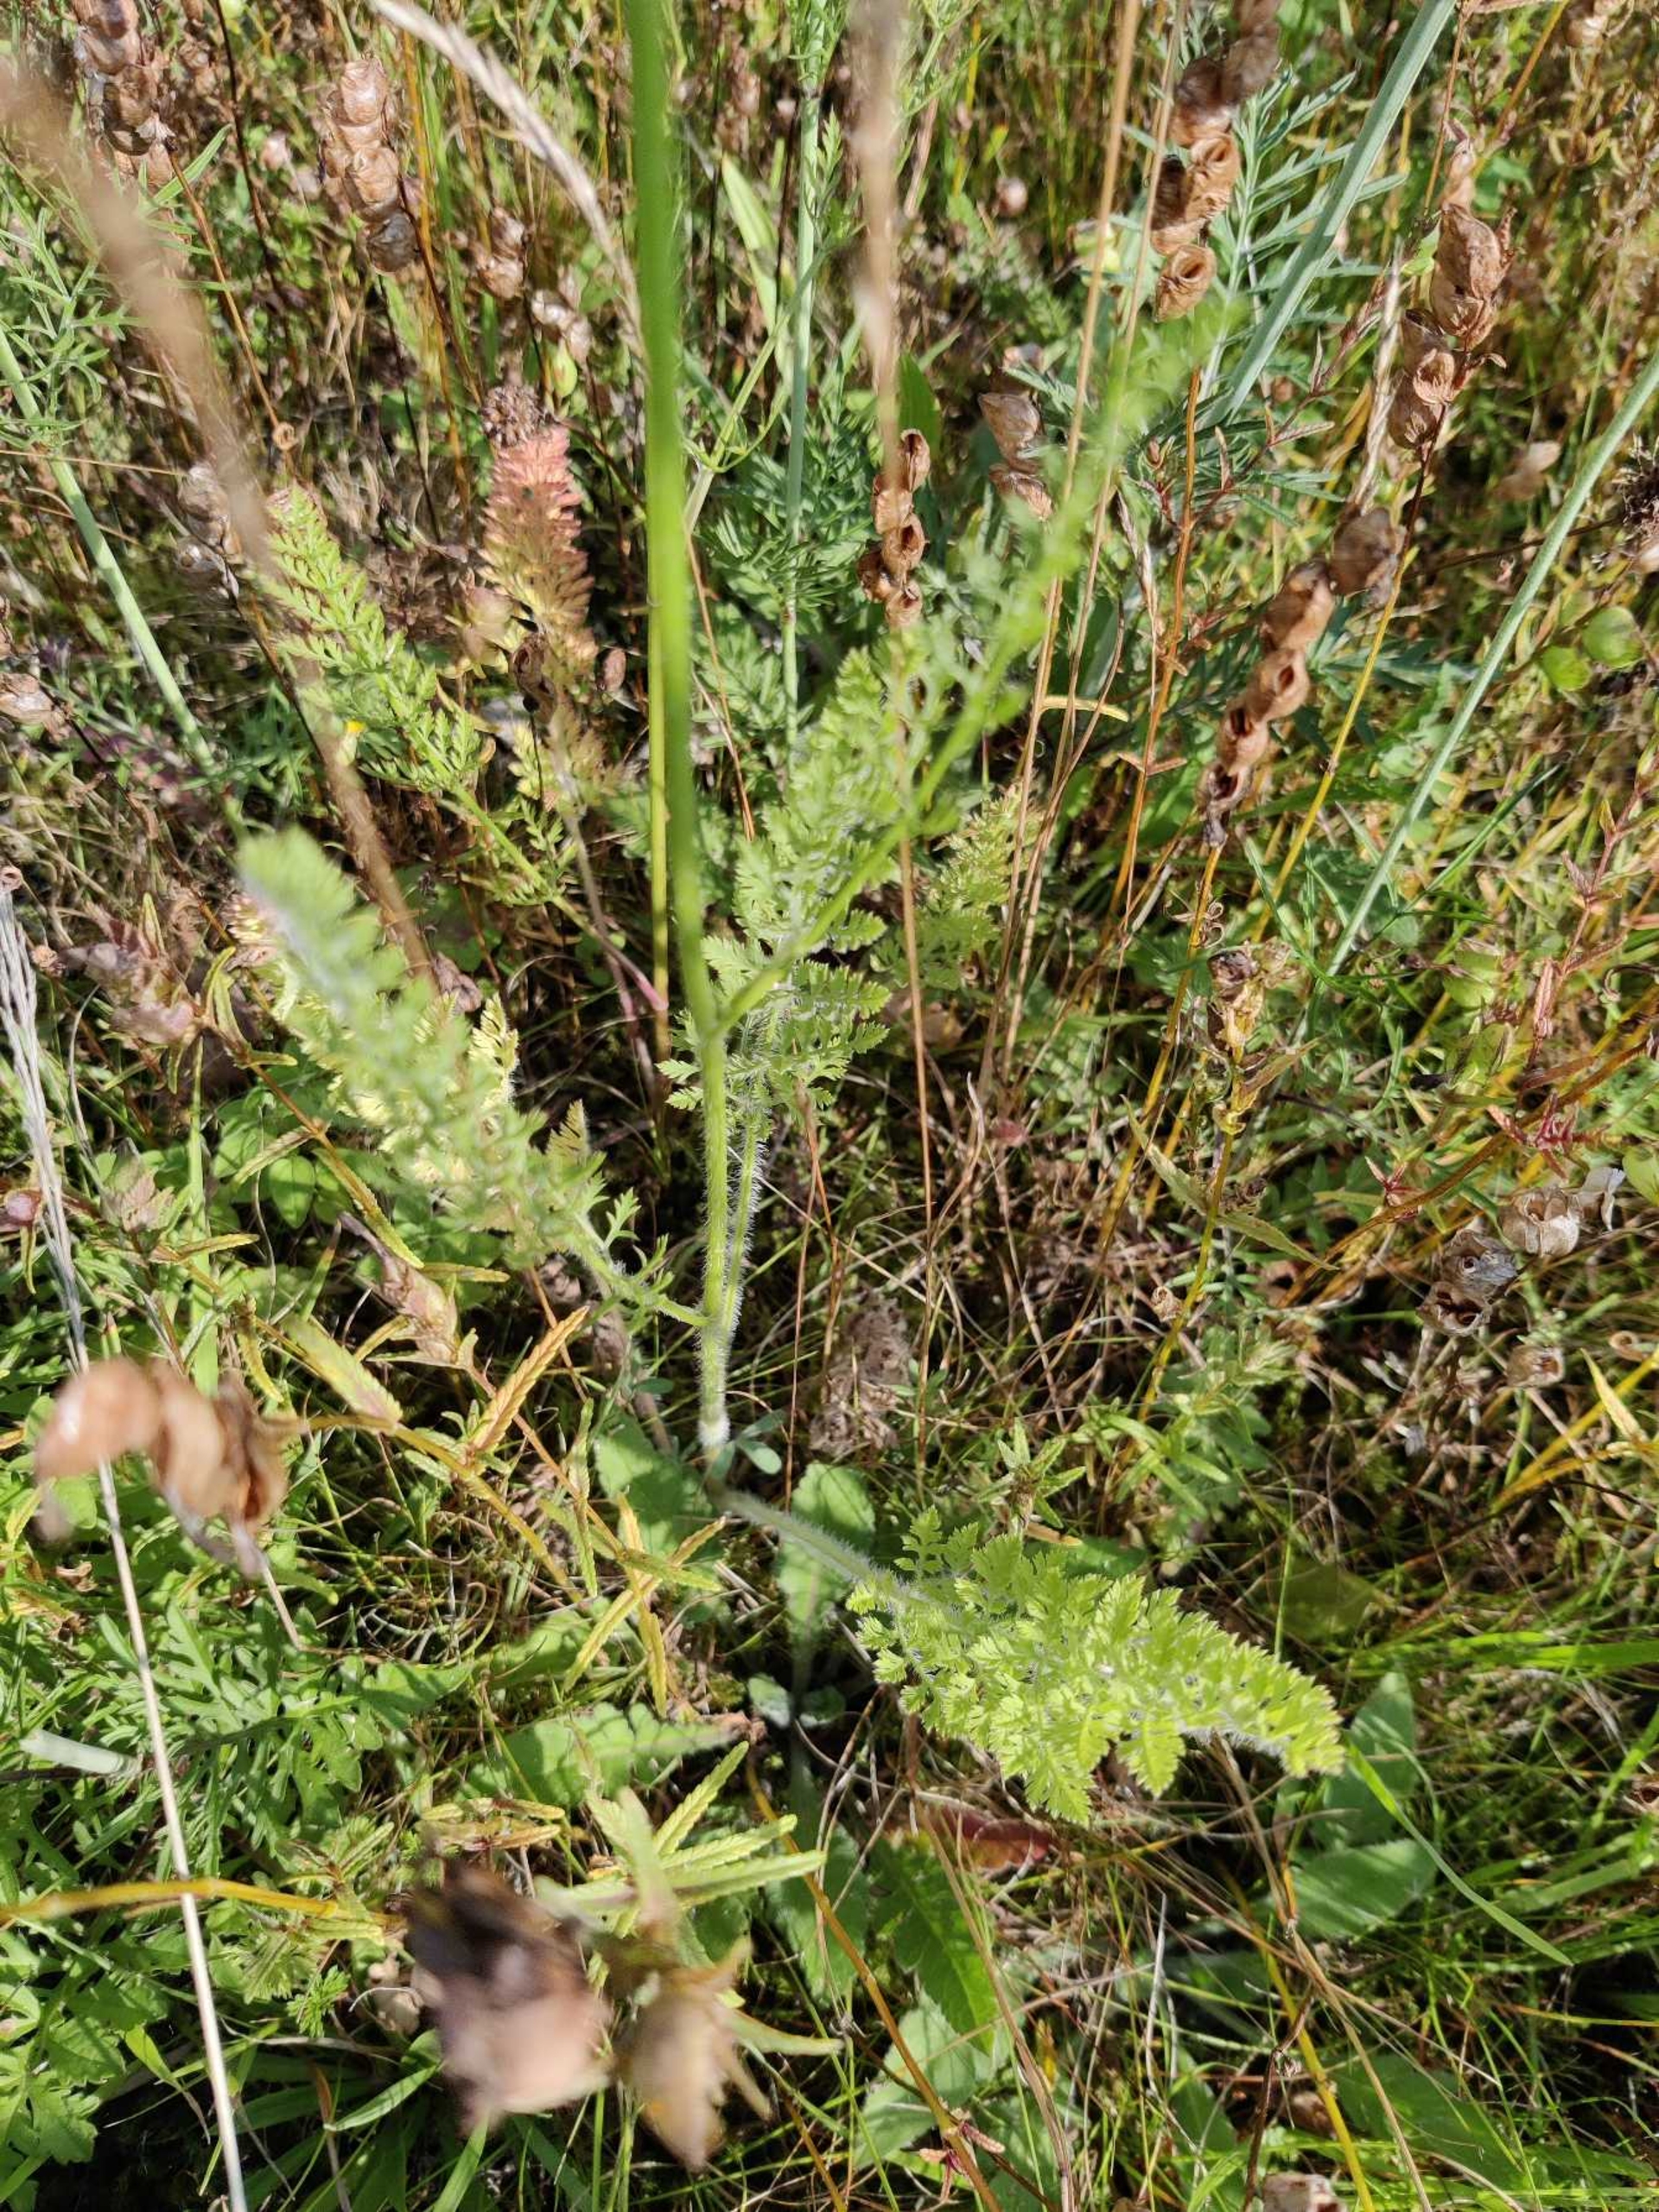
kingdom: Plantae
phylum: Tracheophyta
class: Magnoliopsida
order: Apiales
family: Apiaceae
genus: Daucus
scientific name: Daucus carota
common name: Vild gulerod
